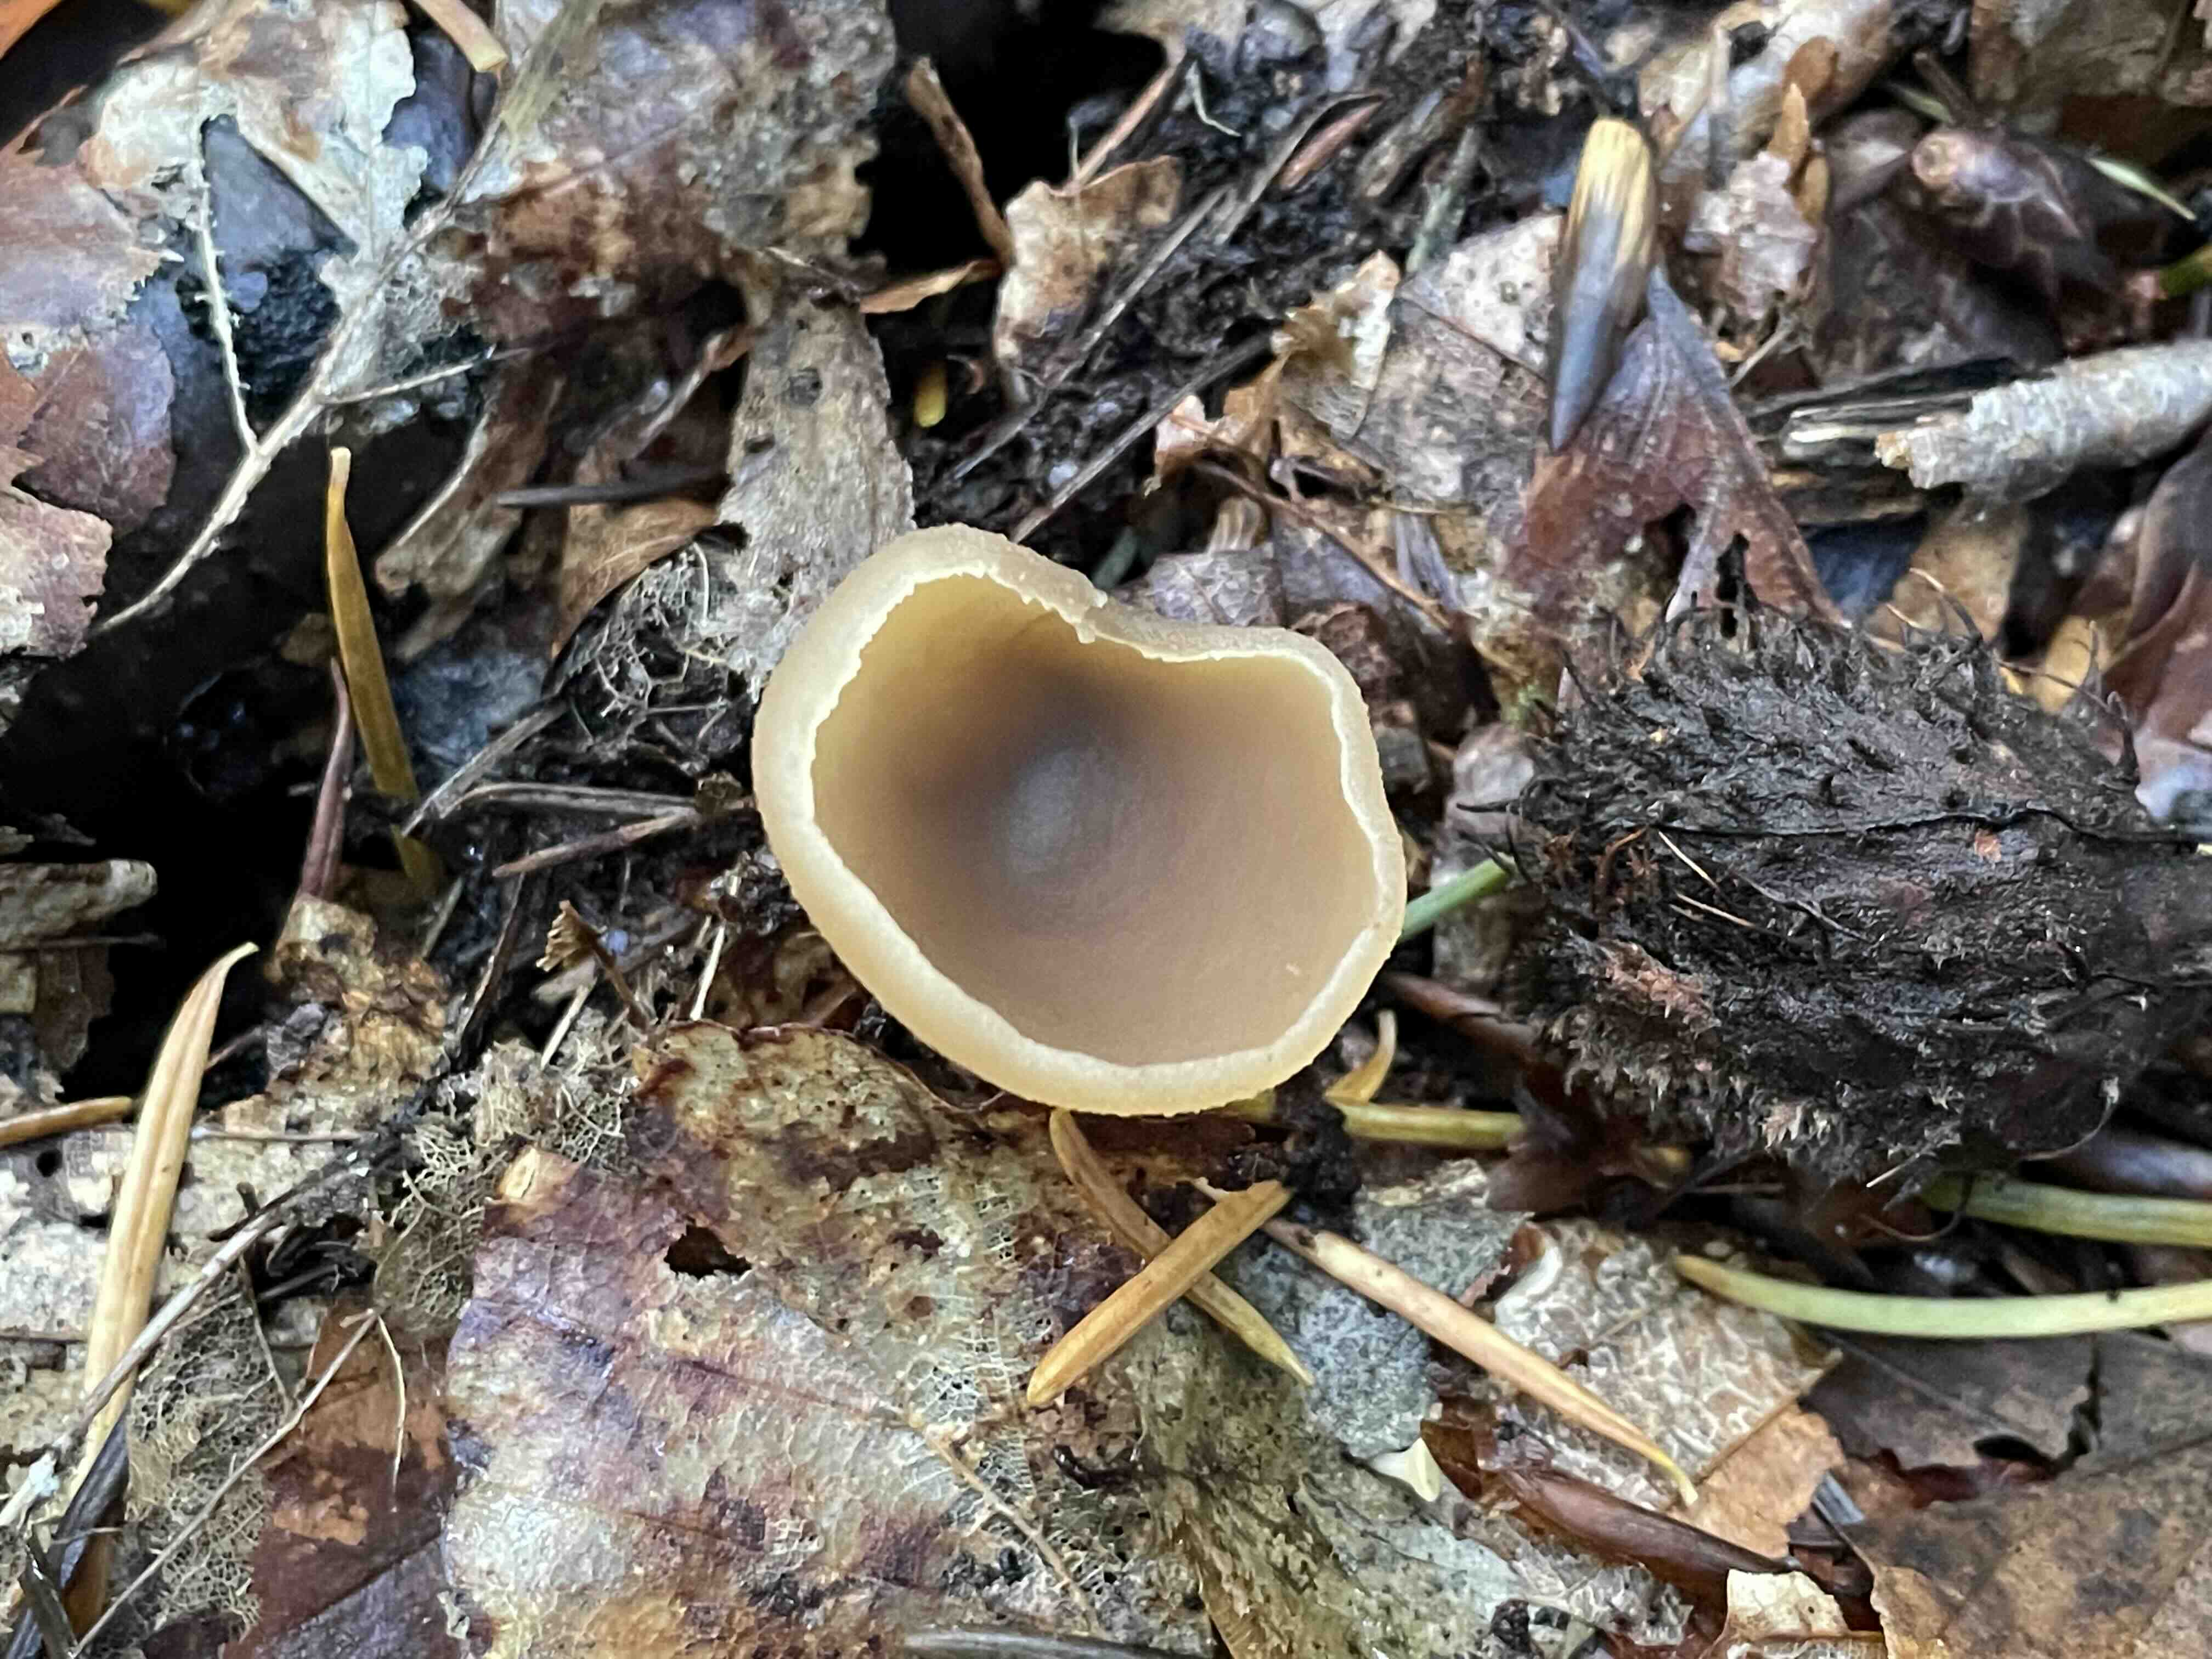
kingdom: Fungi
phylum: Ascomycota
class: Pezizomycetes
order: Pezizales
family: Pezizaceae
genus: Peziza
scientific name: Peziza
